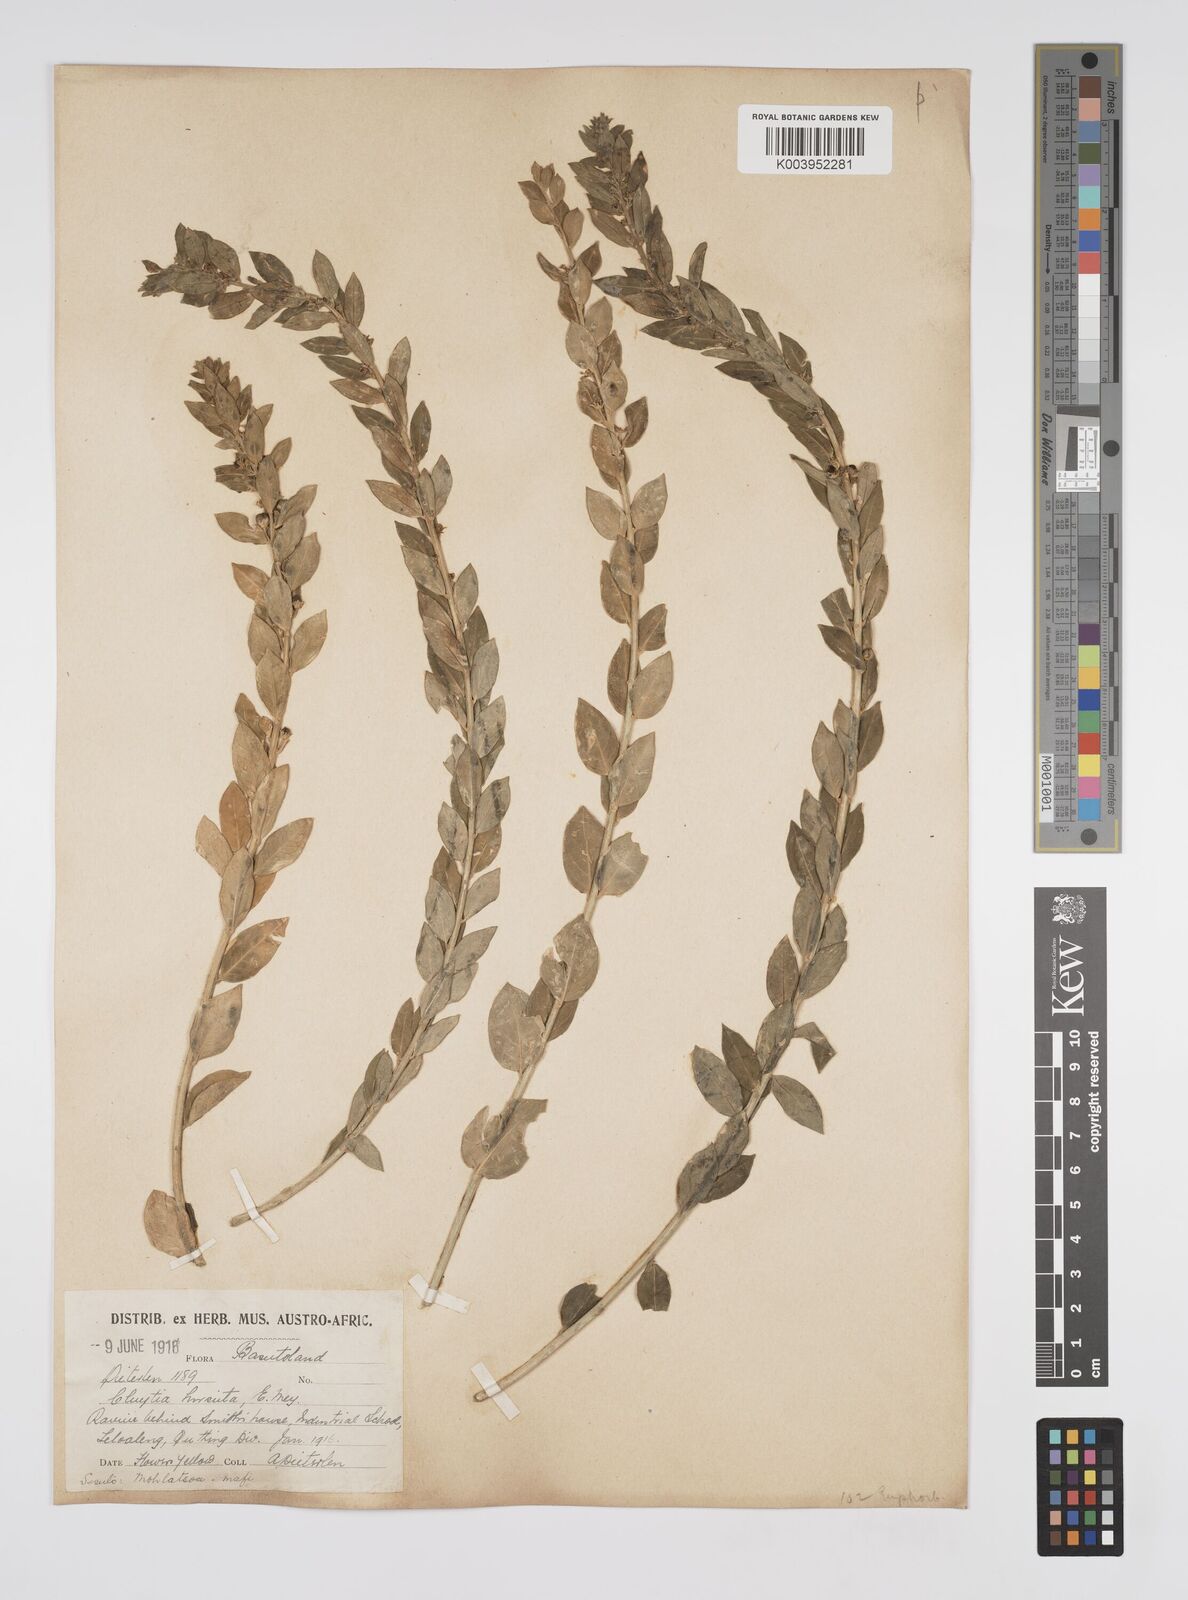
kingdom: Plantae
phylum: Tracheophyta
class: Magnoliopsida
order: Malpighiales
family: Peraceae
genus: Clutia
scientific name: Clutia affinis
